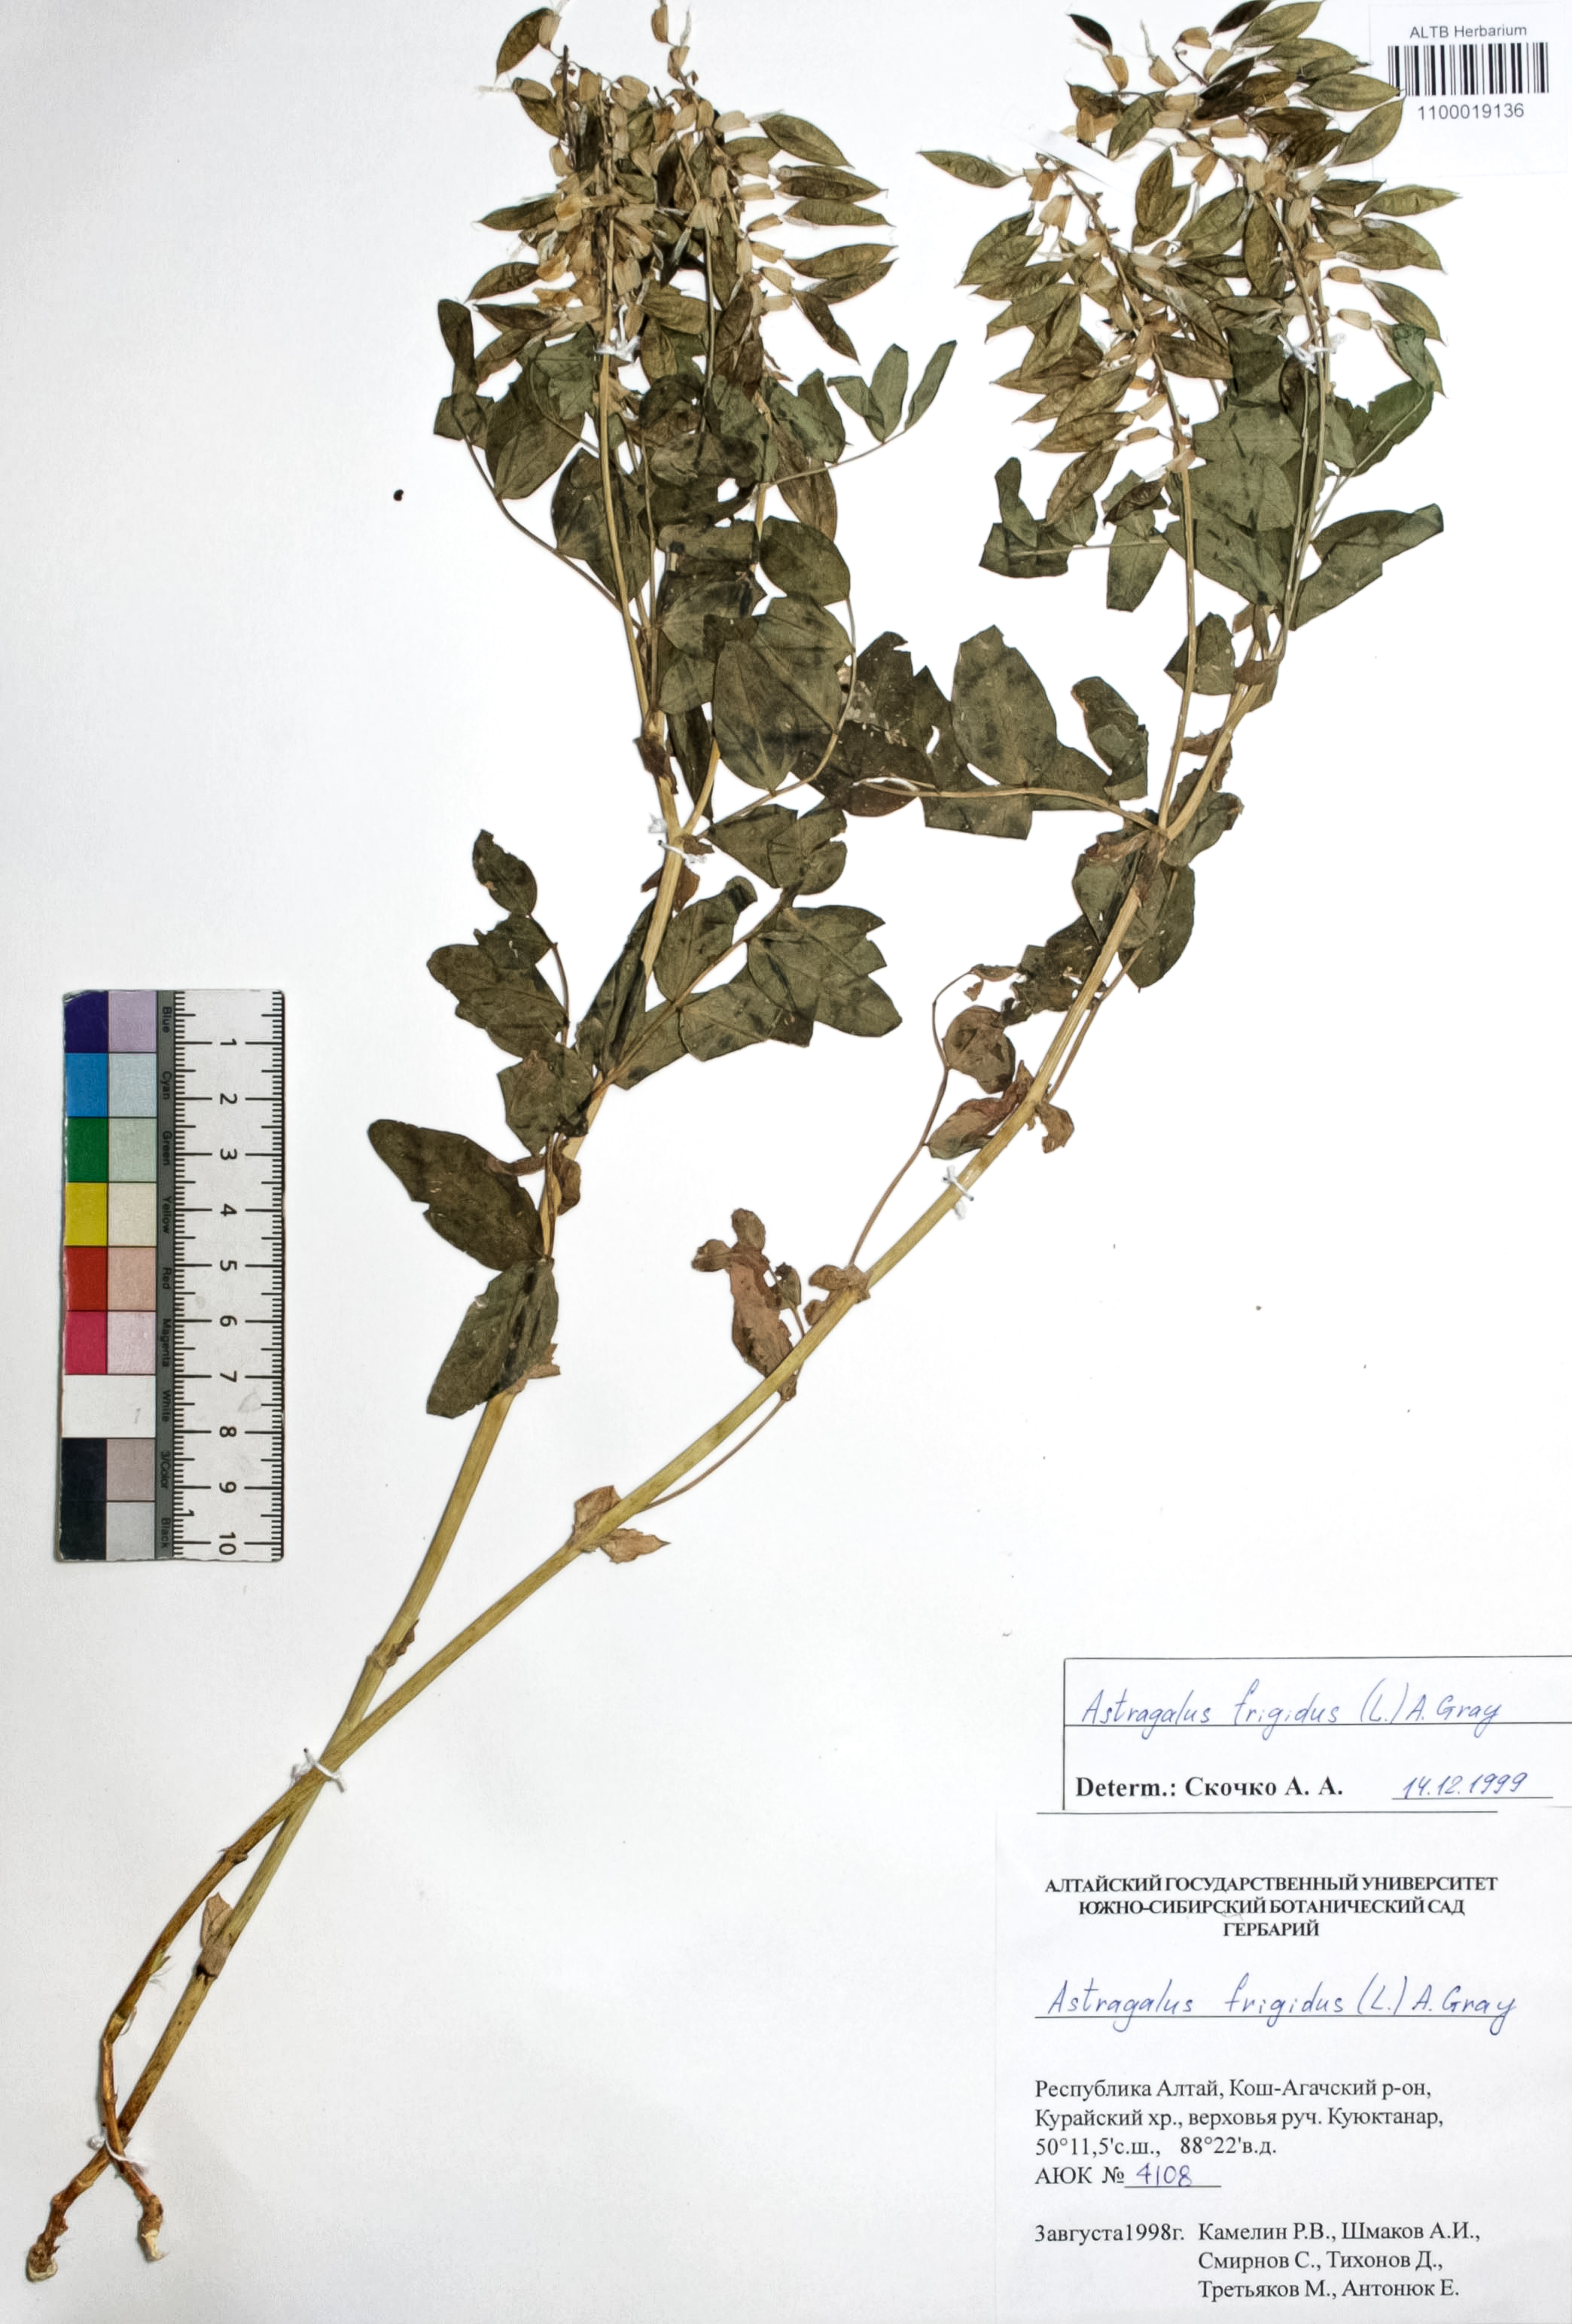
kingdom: Plantae
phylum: Tracheophyta
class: Magnoliopsida
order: Fabales
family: Fabaceae
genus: Astragalus
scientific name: Astragalus frigidus
